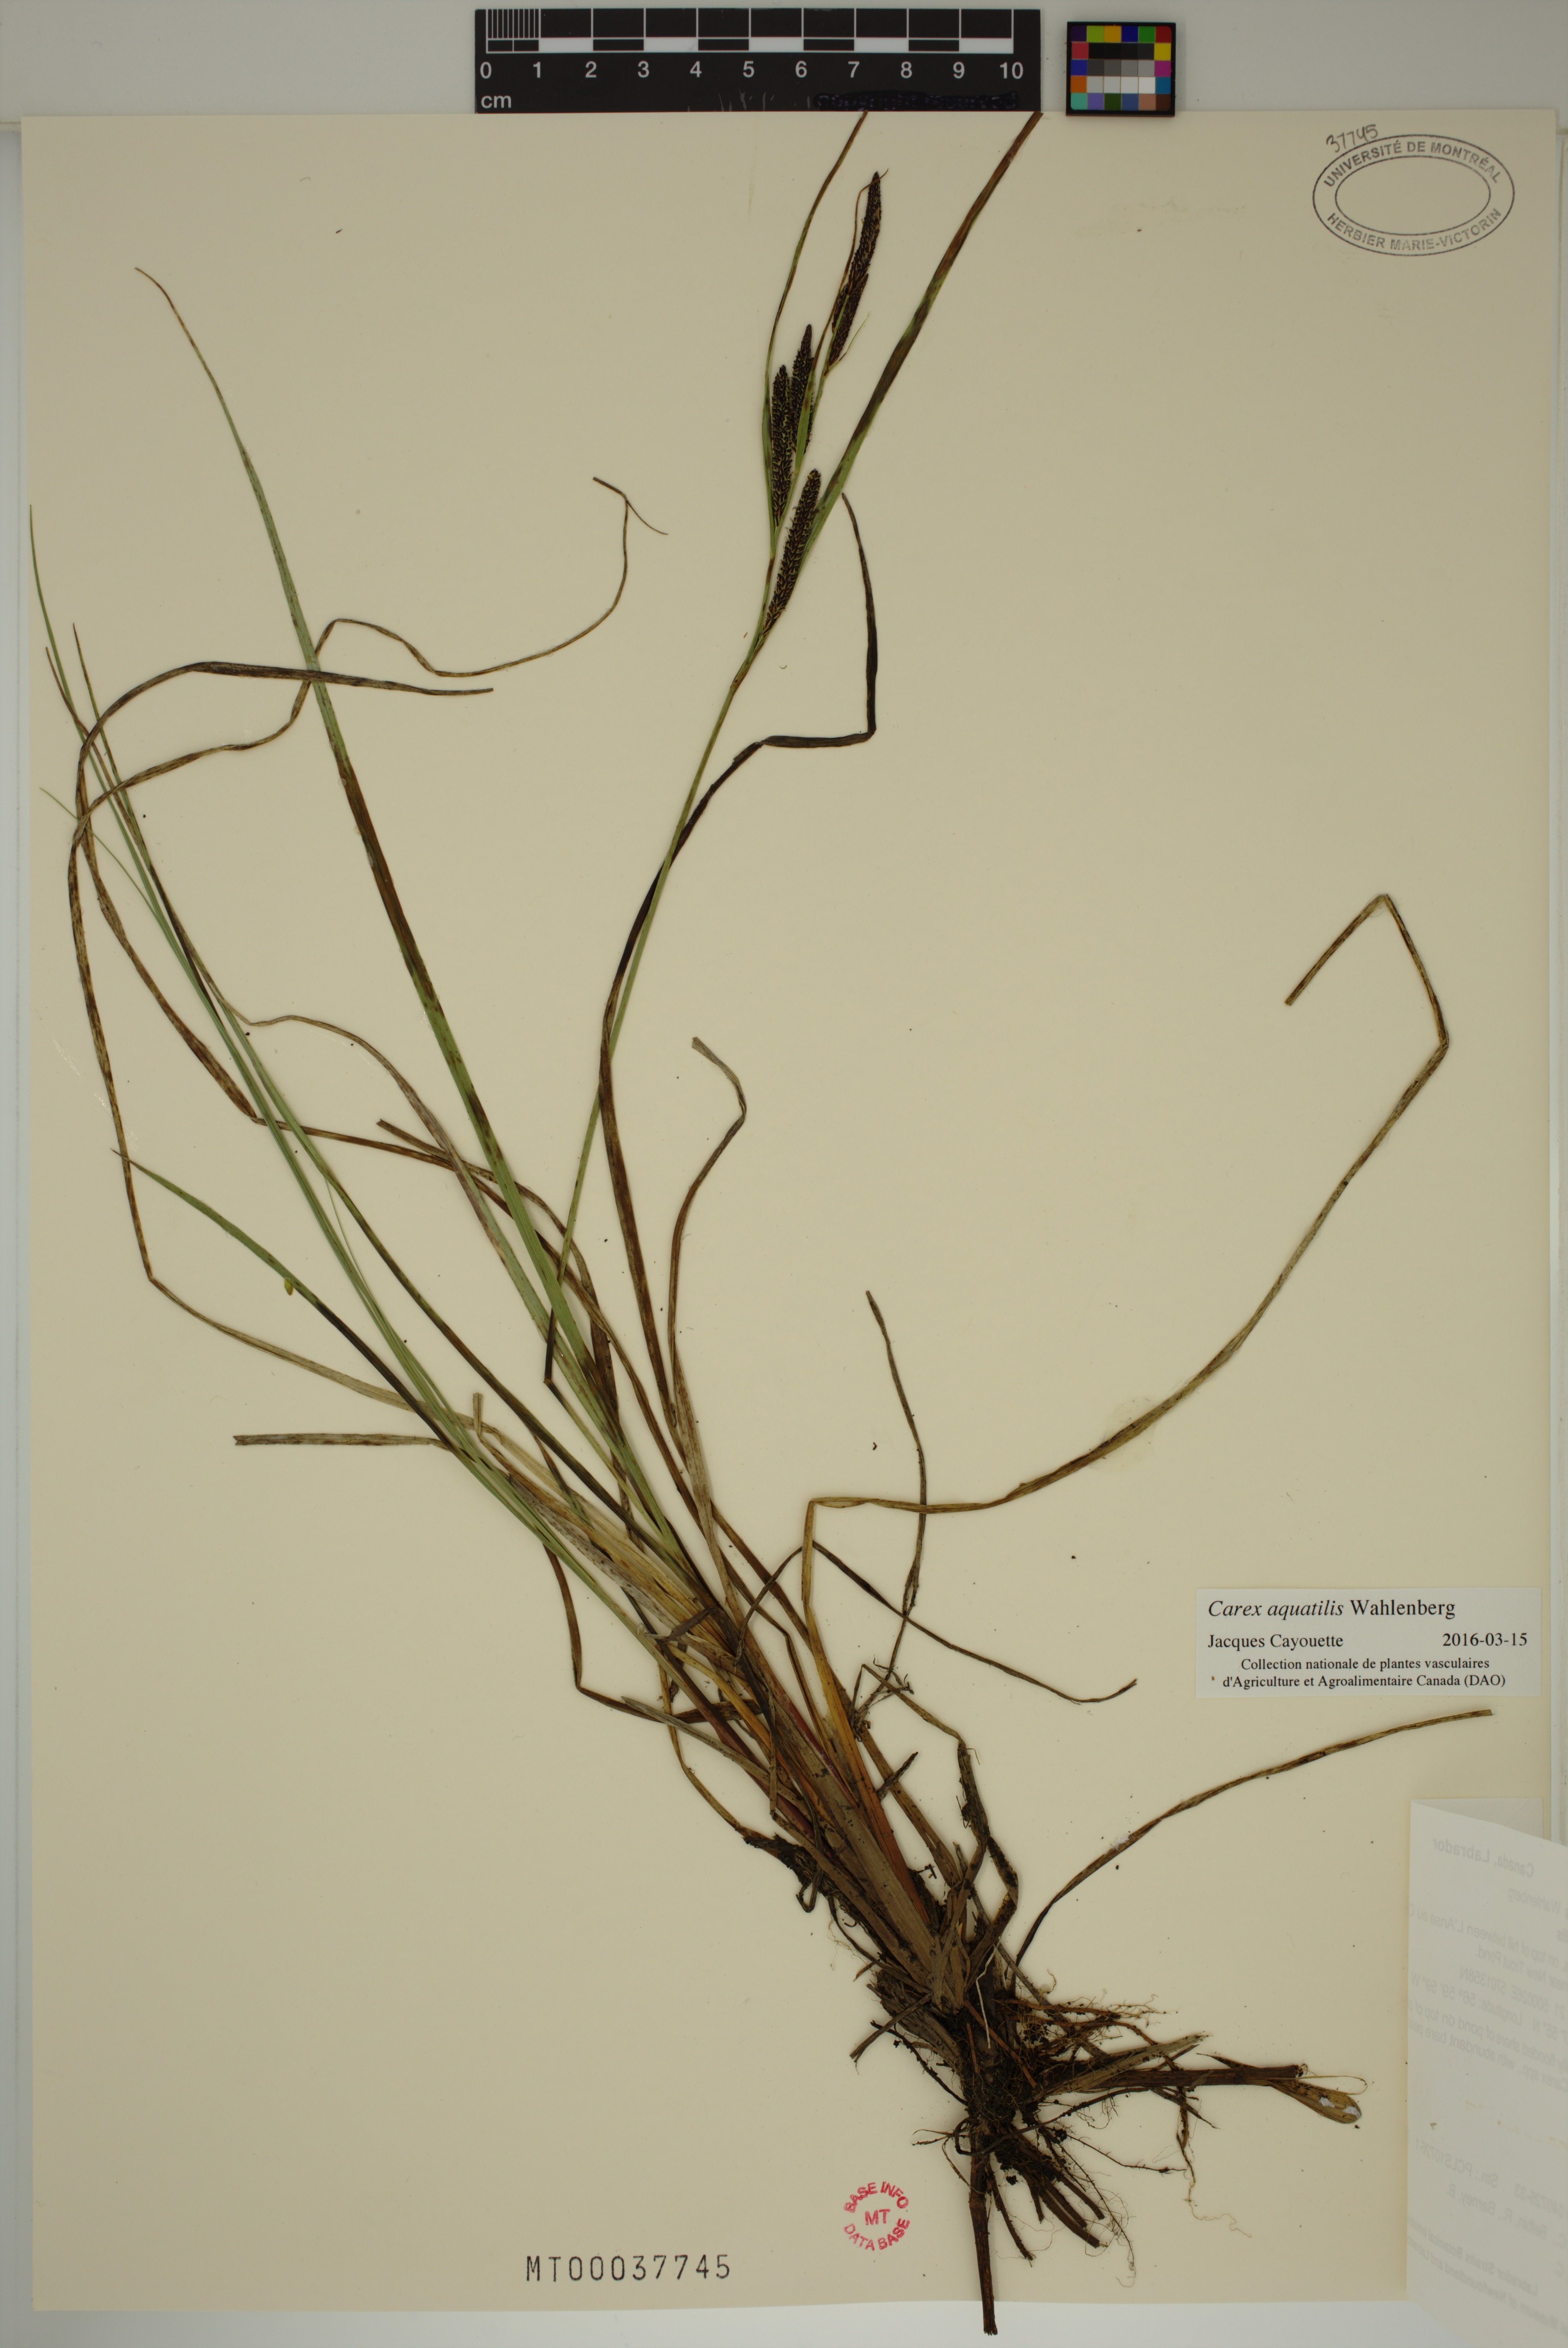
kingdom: Plantae
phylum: Tracheophyta
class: Liliopsida
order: Poales
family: Cyperaceae
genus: Carex
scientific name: Carex aquatilis
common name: Water sedge
